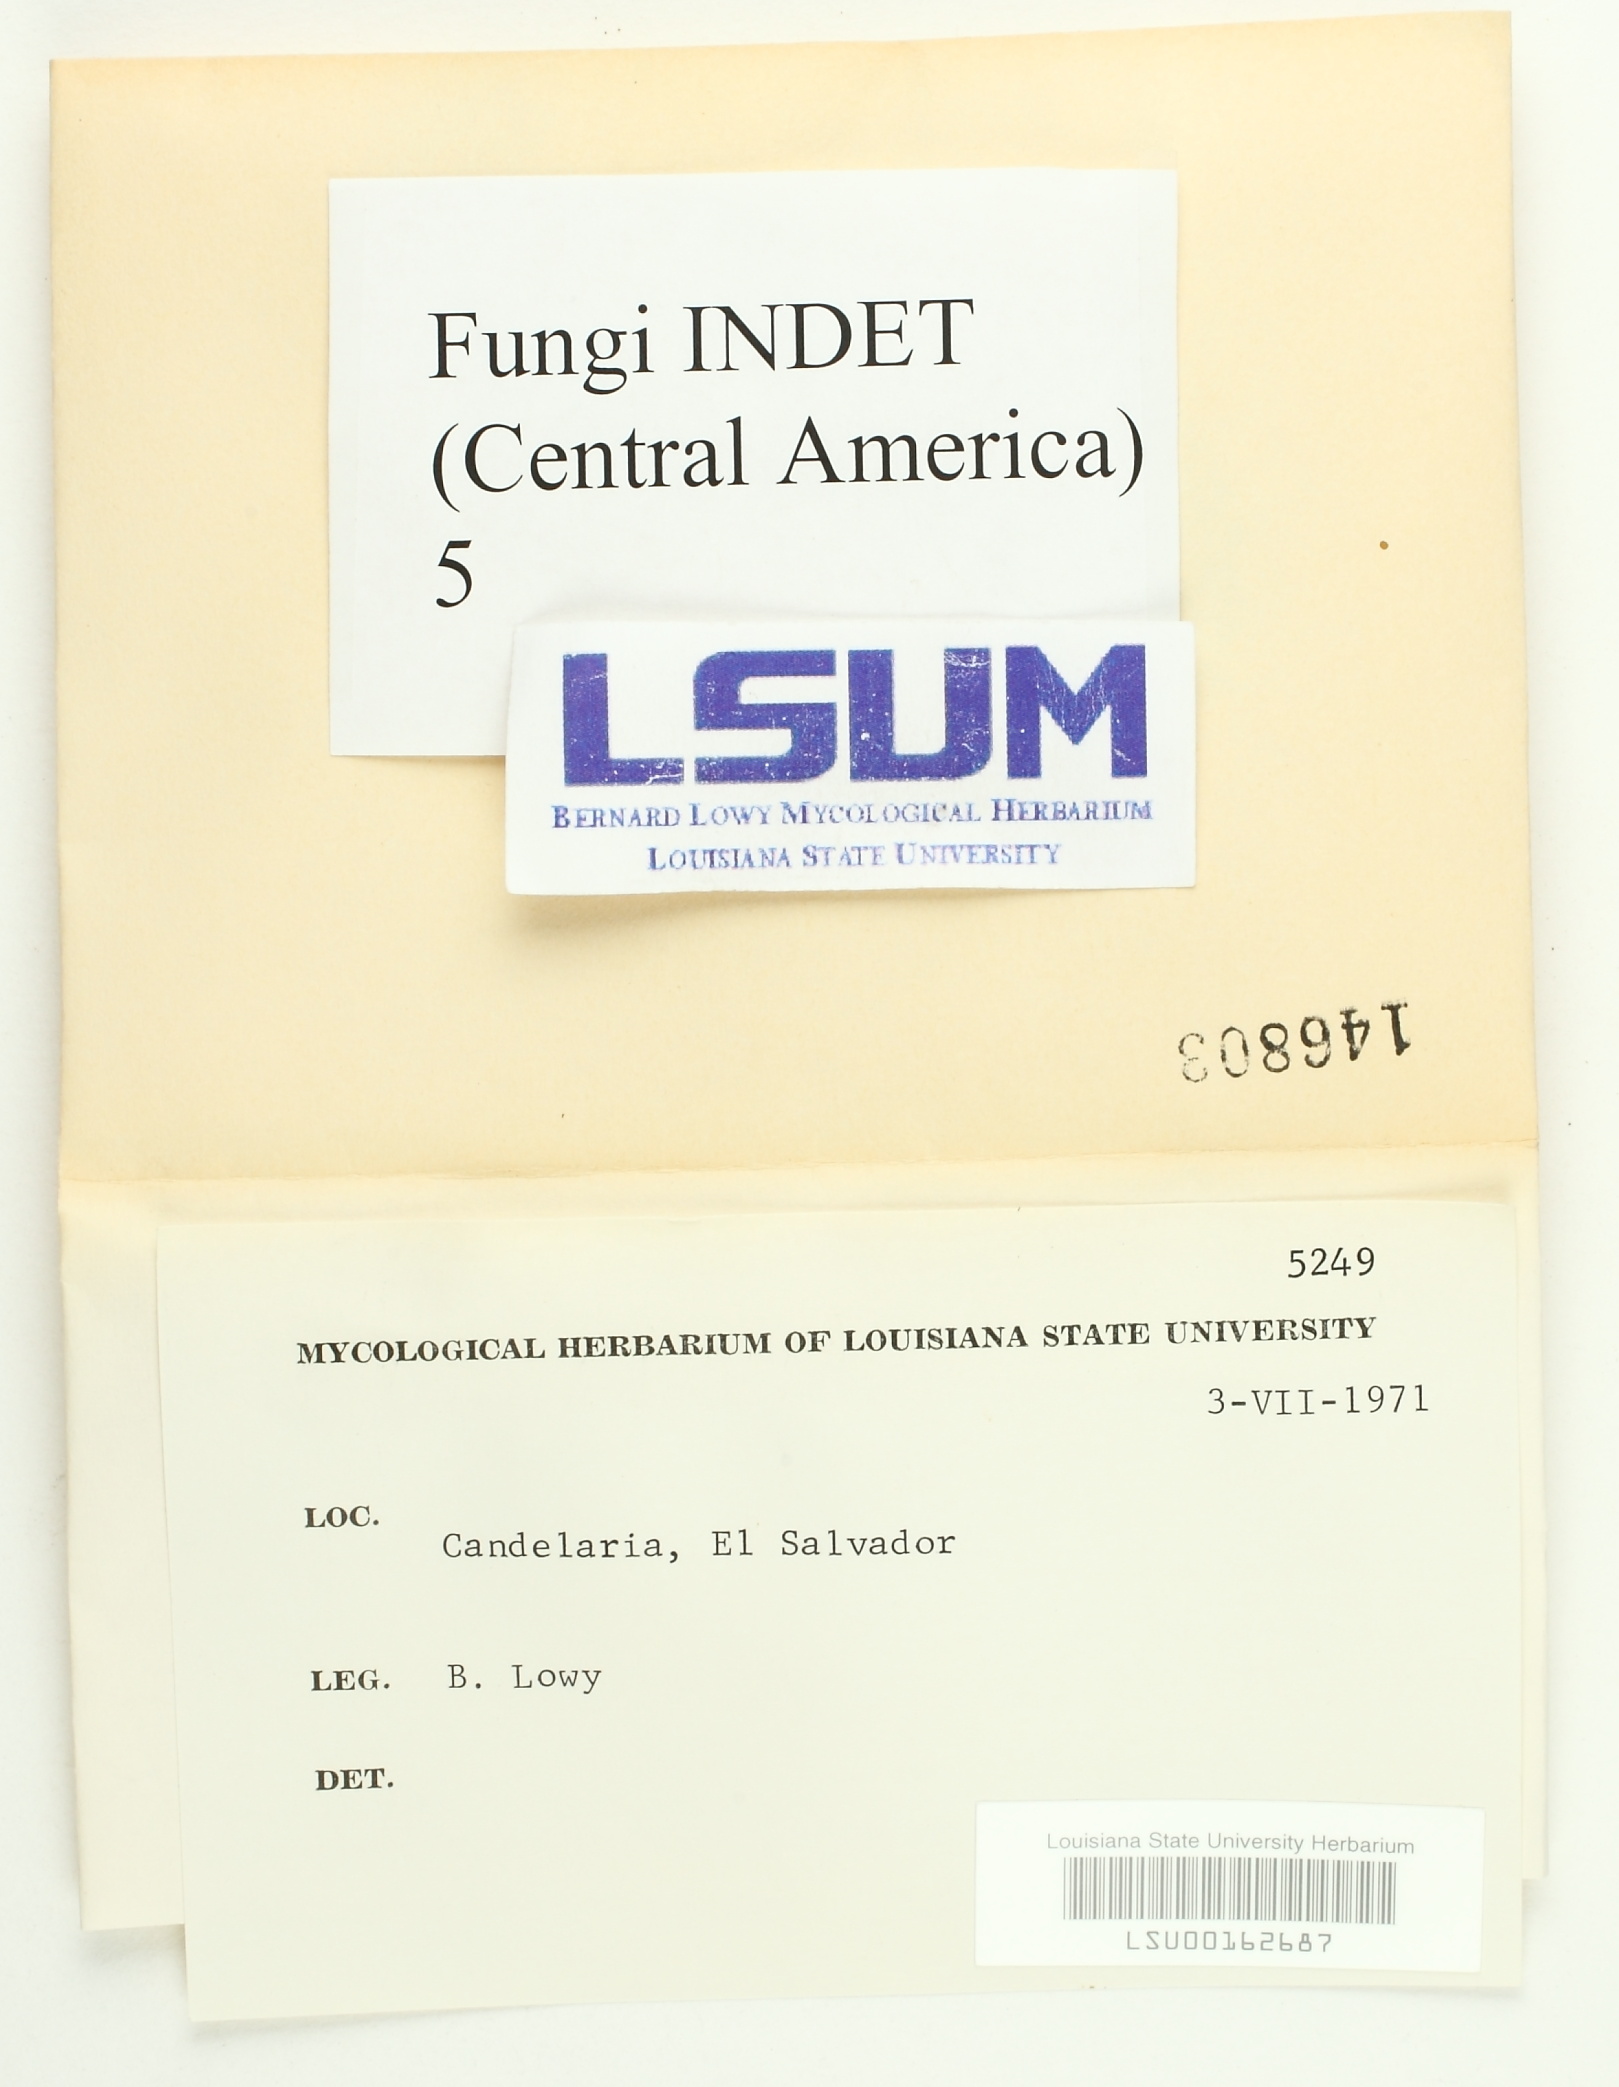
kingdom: Fungi
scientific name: Fungi
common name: Fungi
